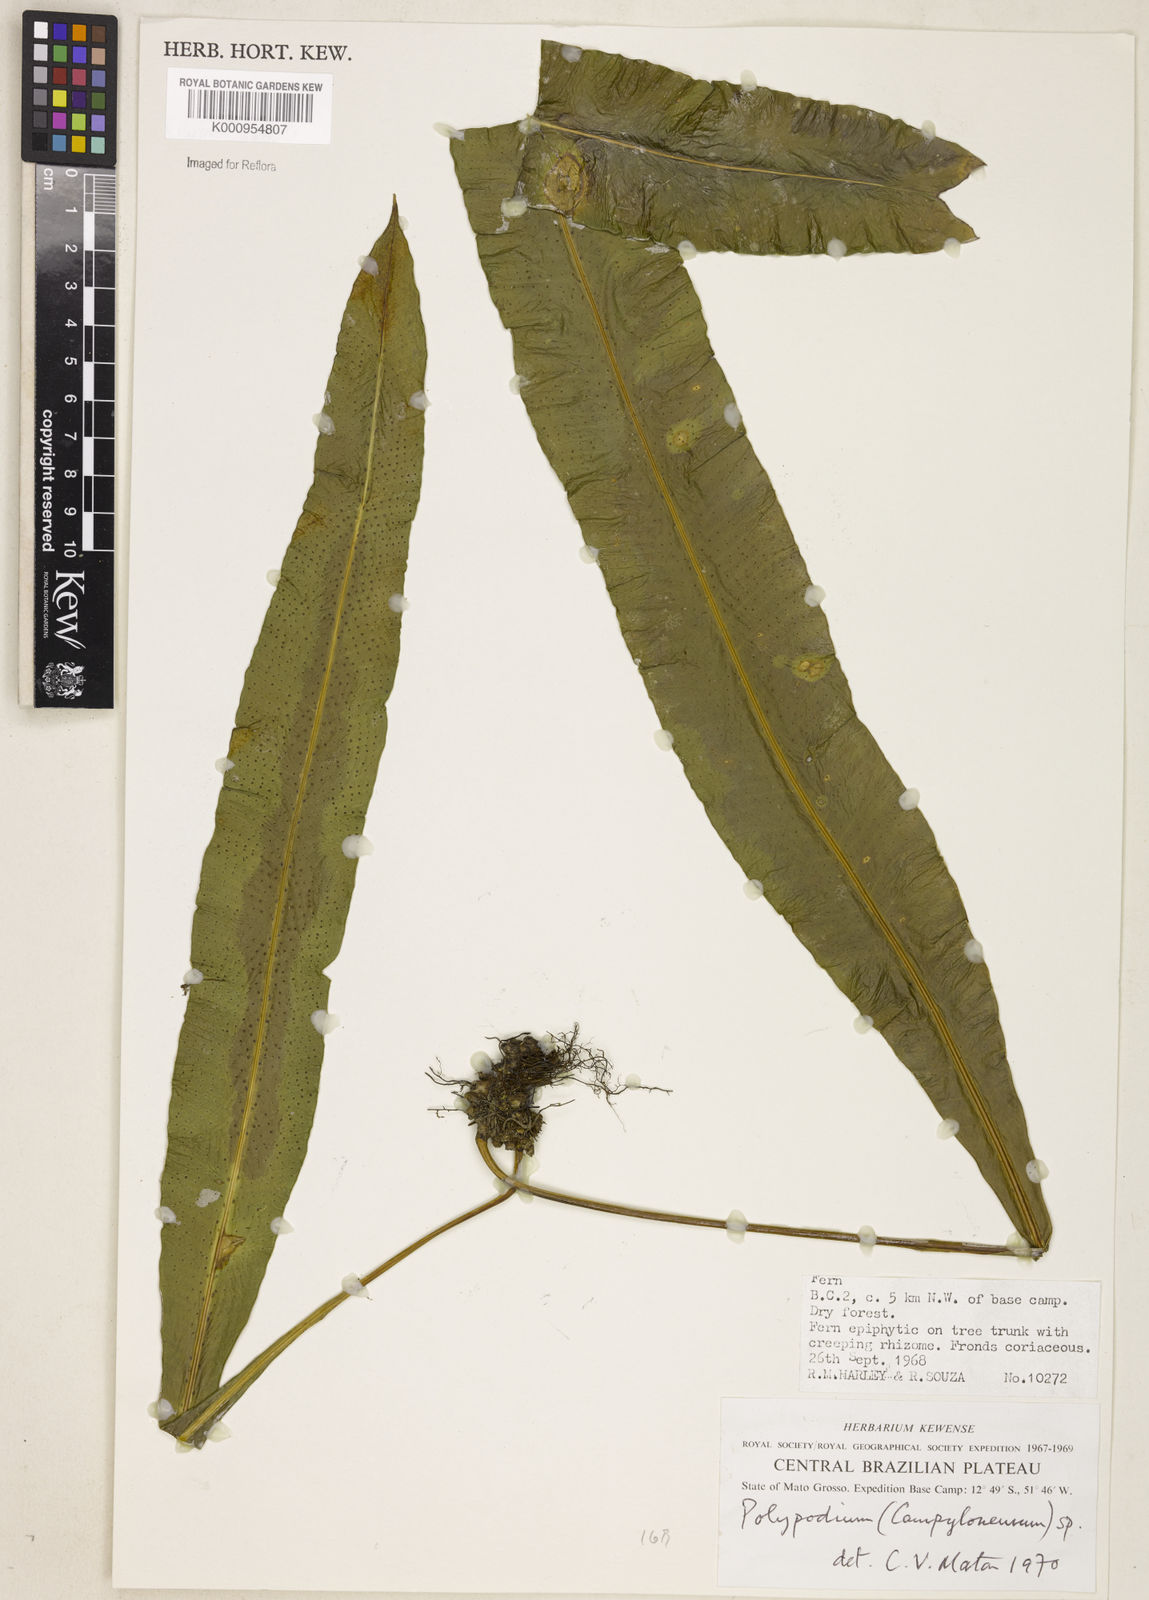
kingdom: Plantae
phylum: Tracheophyta
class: Polypodiopsida
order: Polypodiales
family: Polypodiaceae
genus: Campyloneurum
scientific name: Campyloneurum
